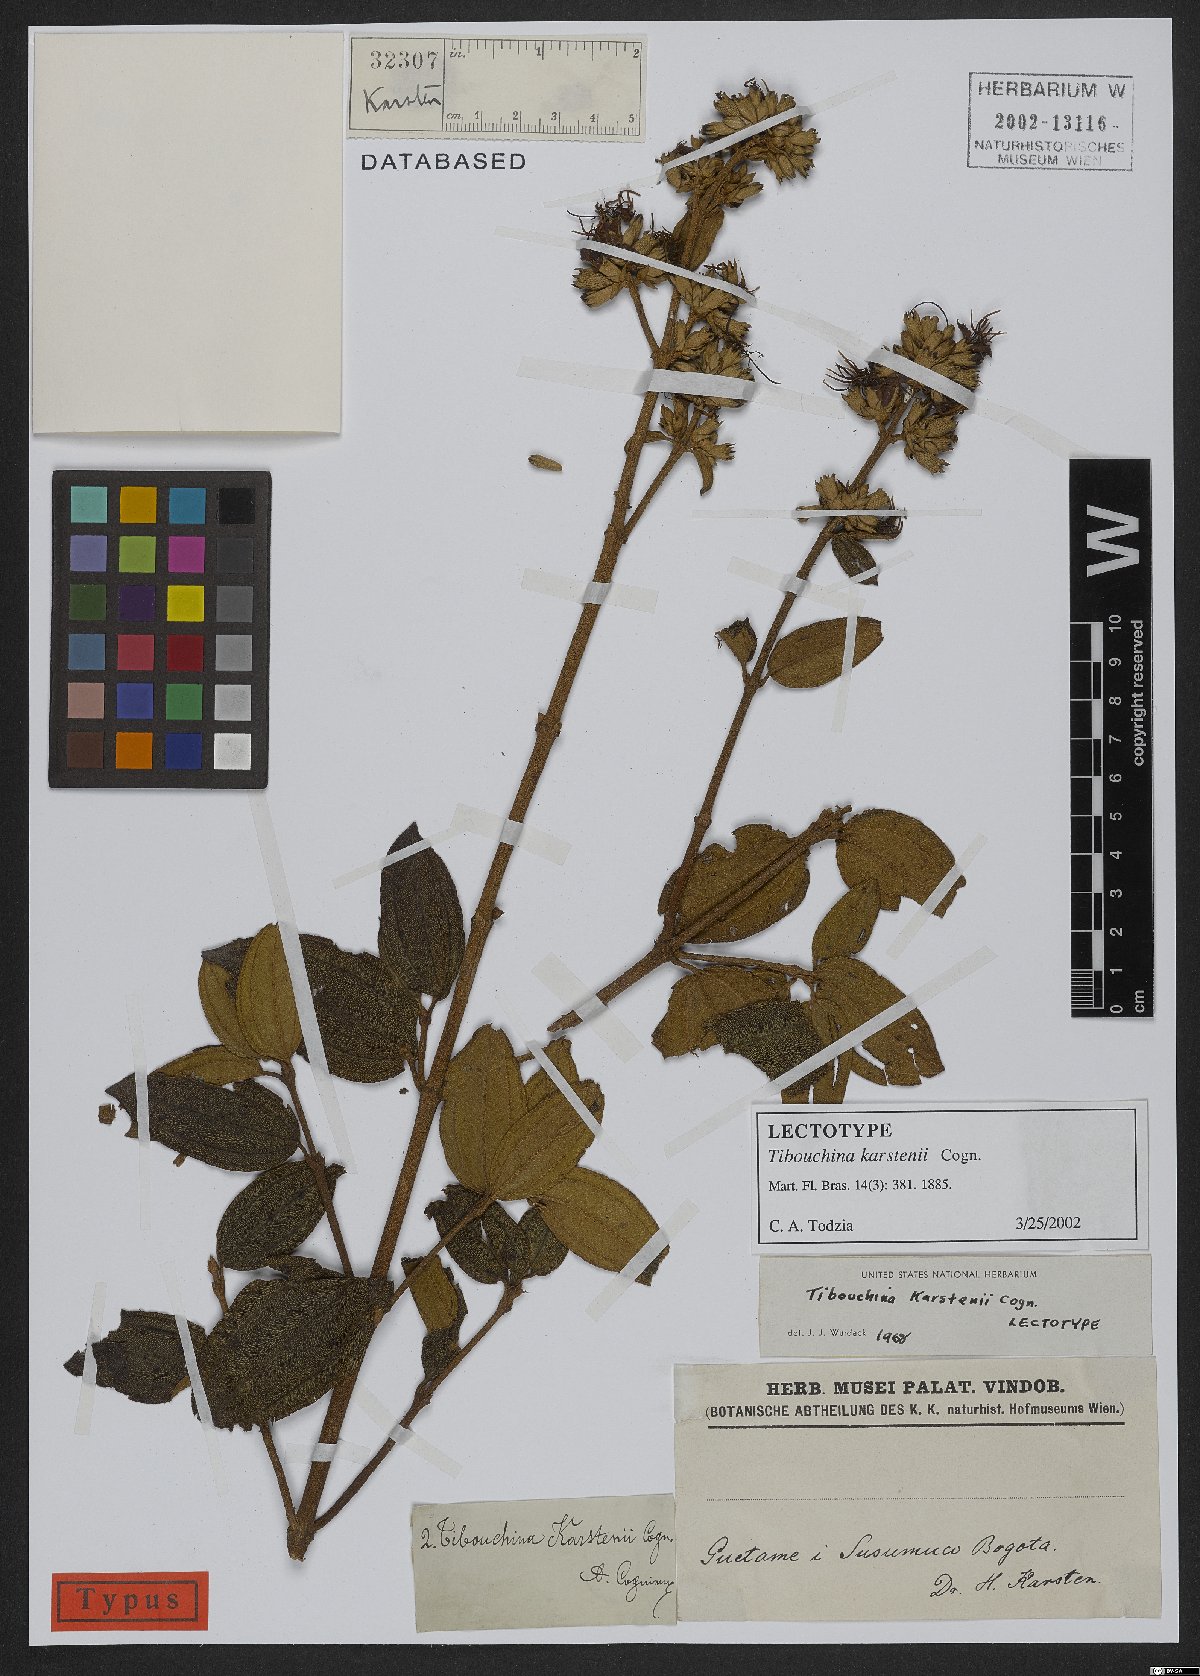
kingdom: Plantae
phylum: Tracheophyta
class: Magnoliopsida
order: Myrtales
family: Melastomataceae
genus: Tibouchina
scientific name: Tibouchina karstenii
